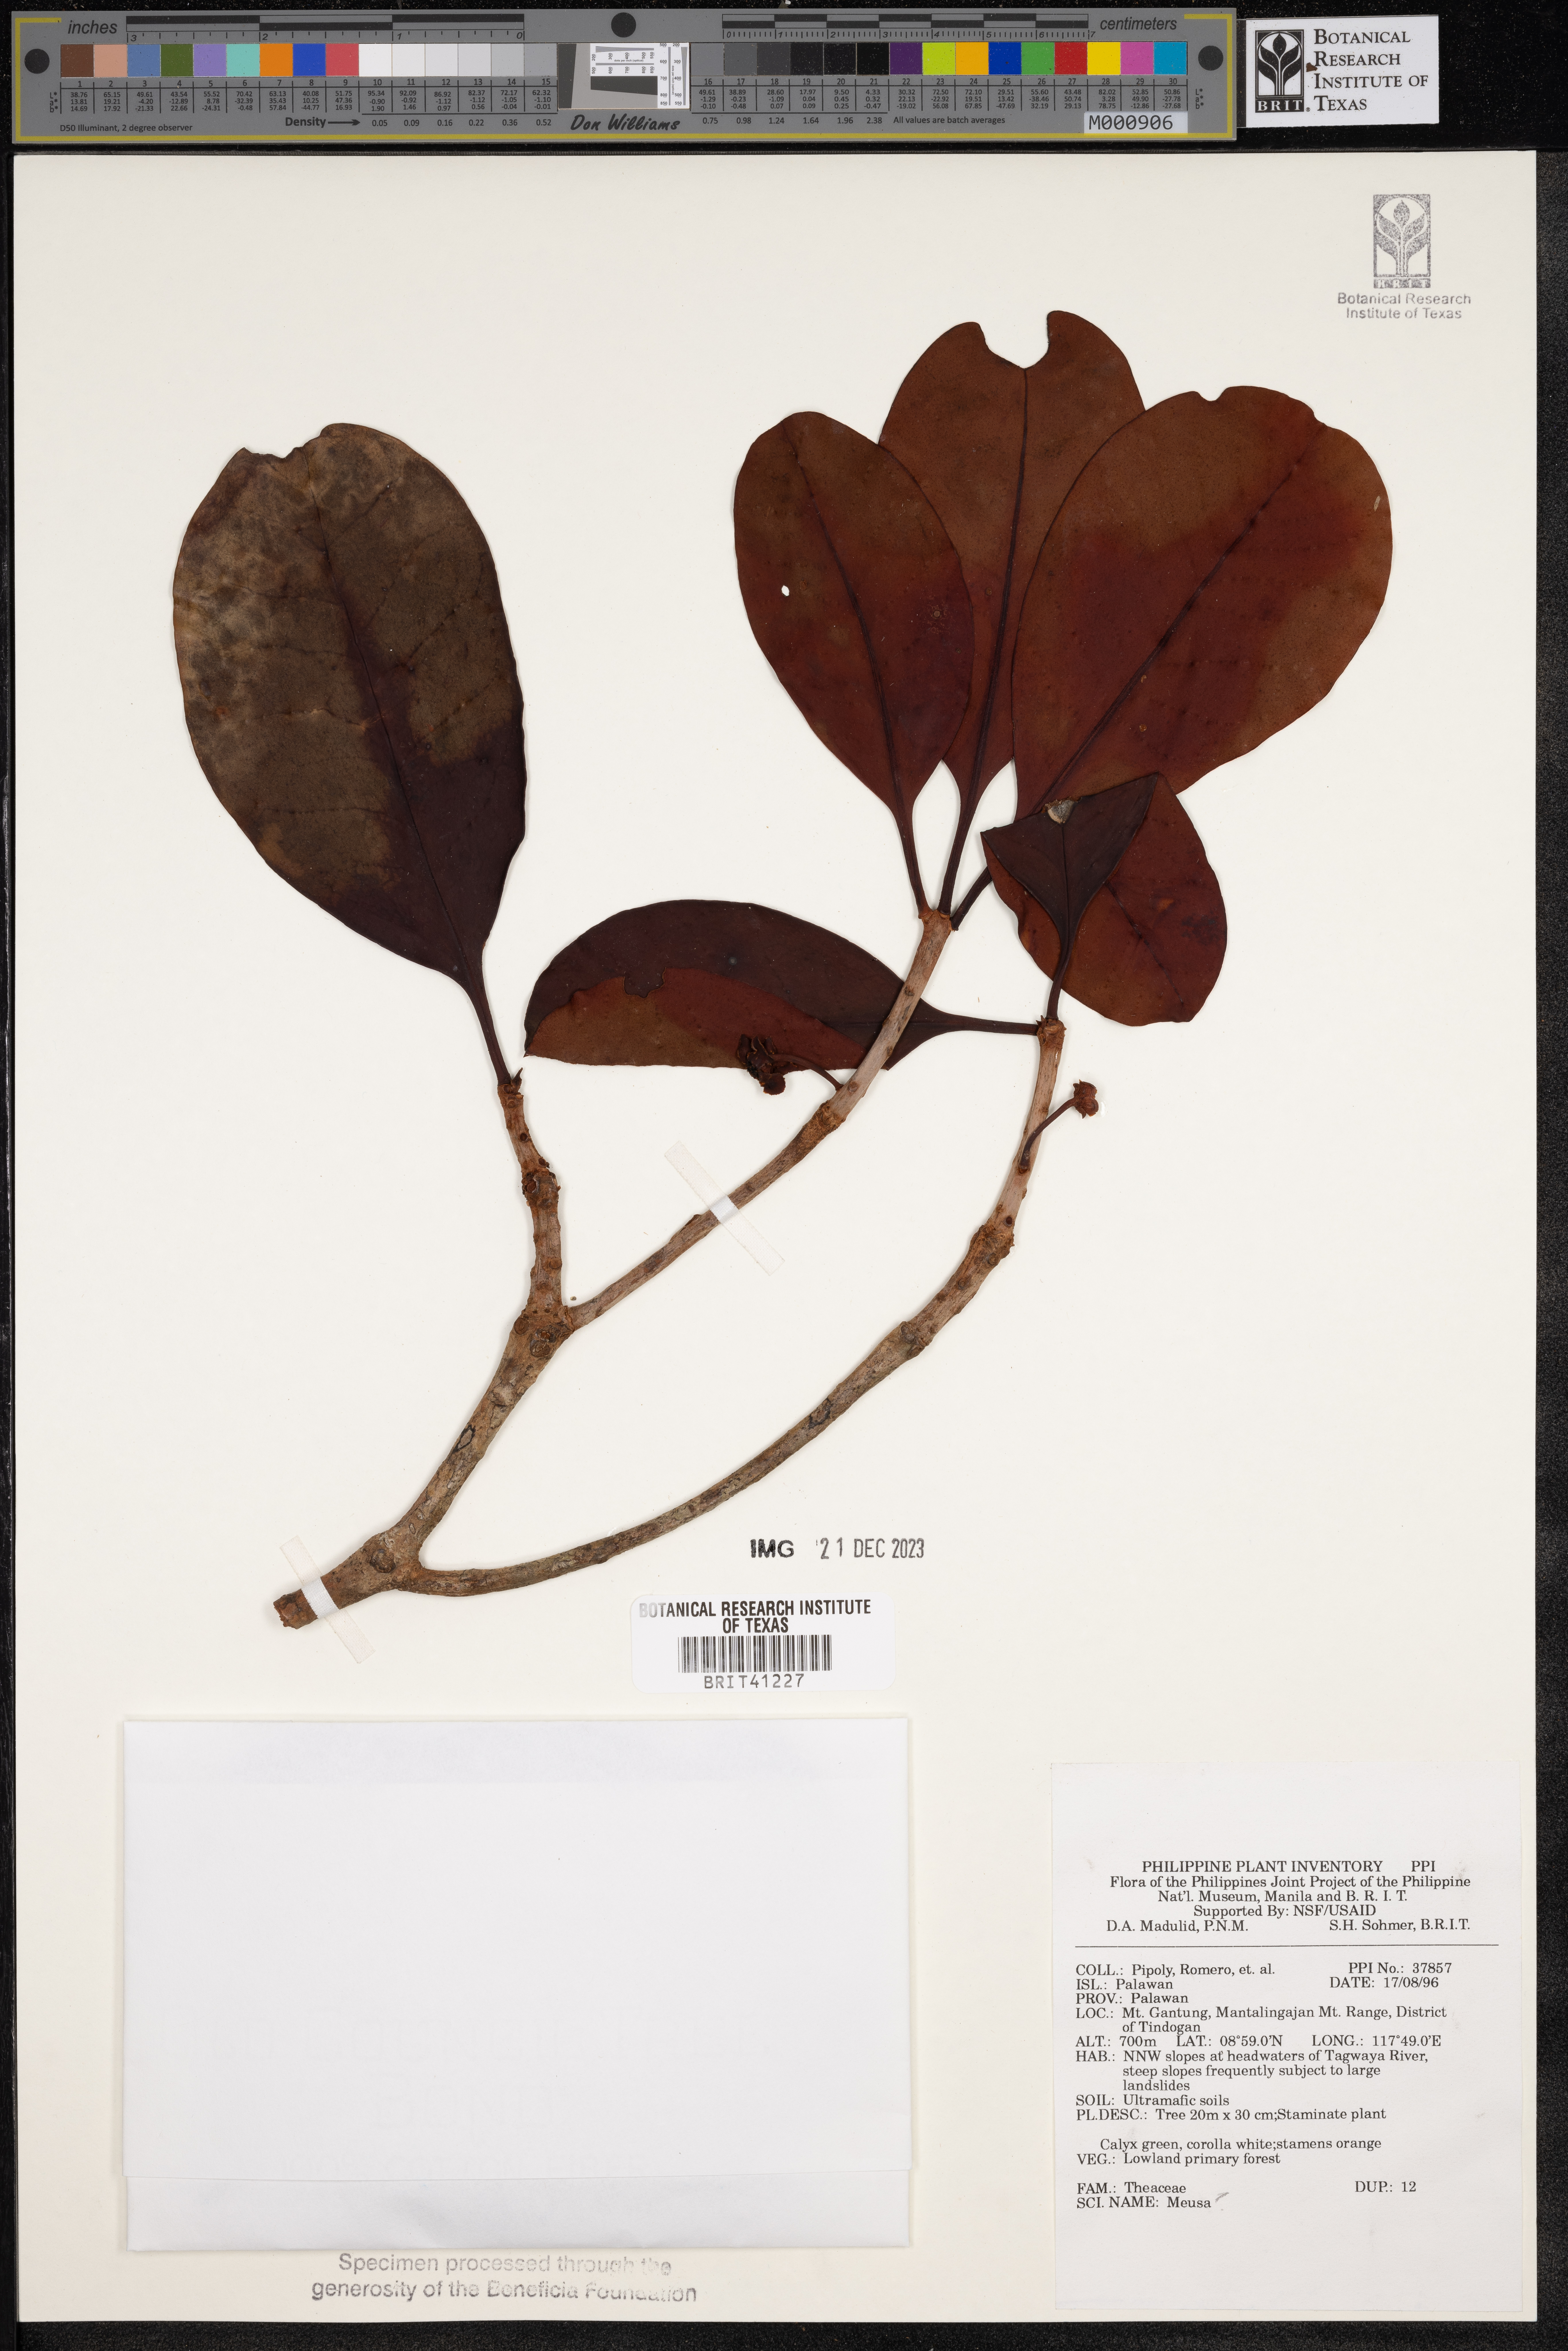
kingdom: Plantae
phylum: Tracheophyta
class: Magnoliopsida
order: Ericales
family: Theaceae
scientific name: Theaceae
